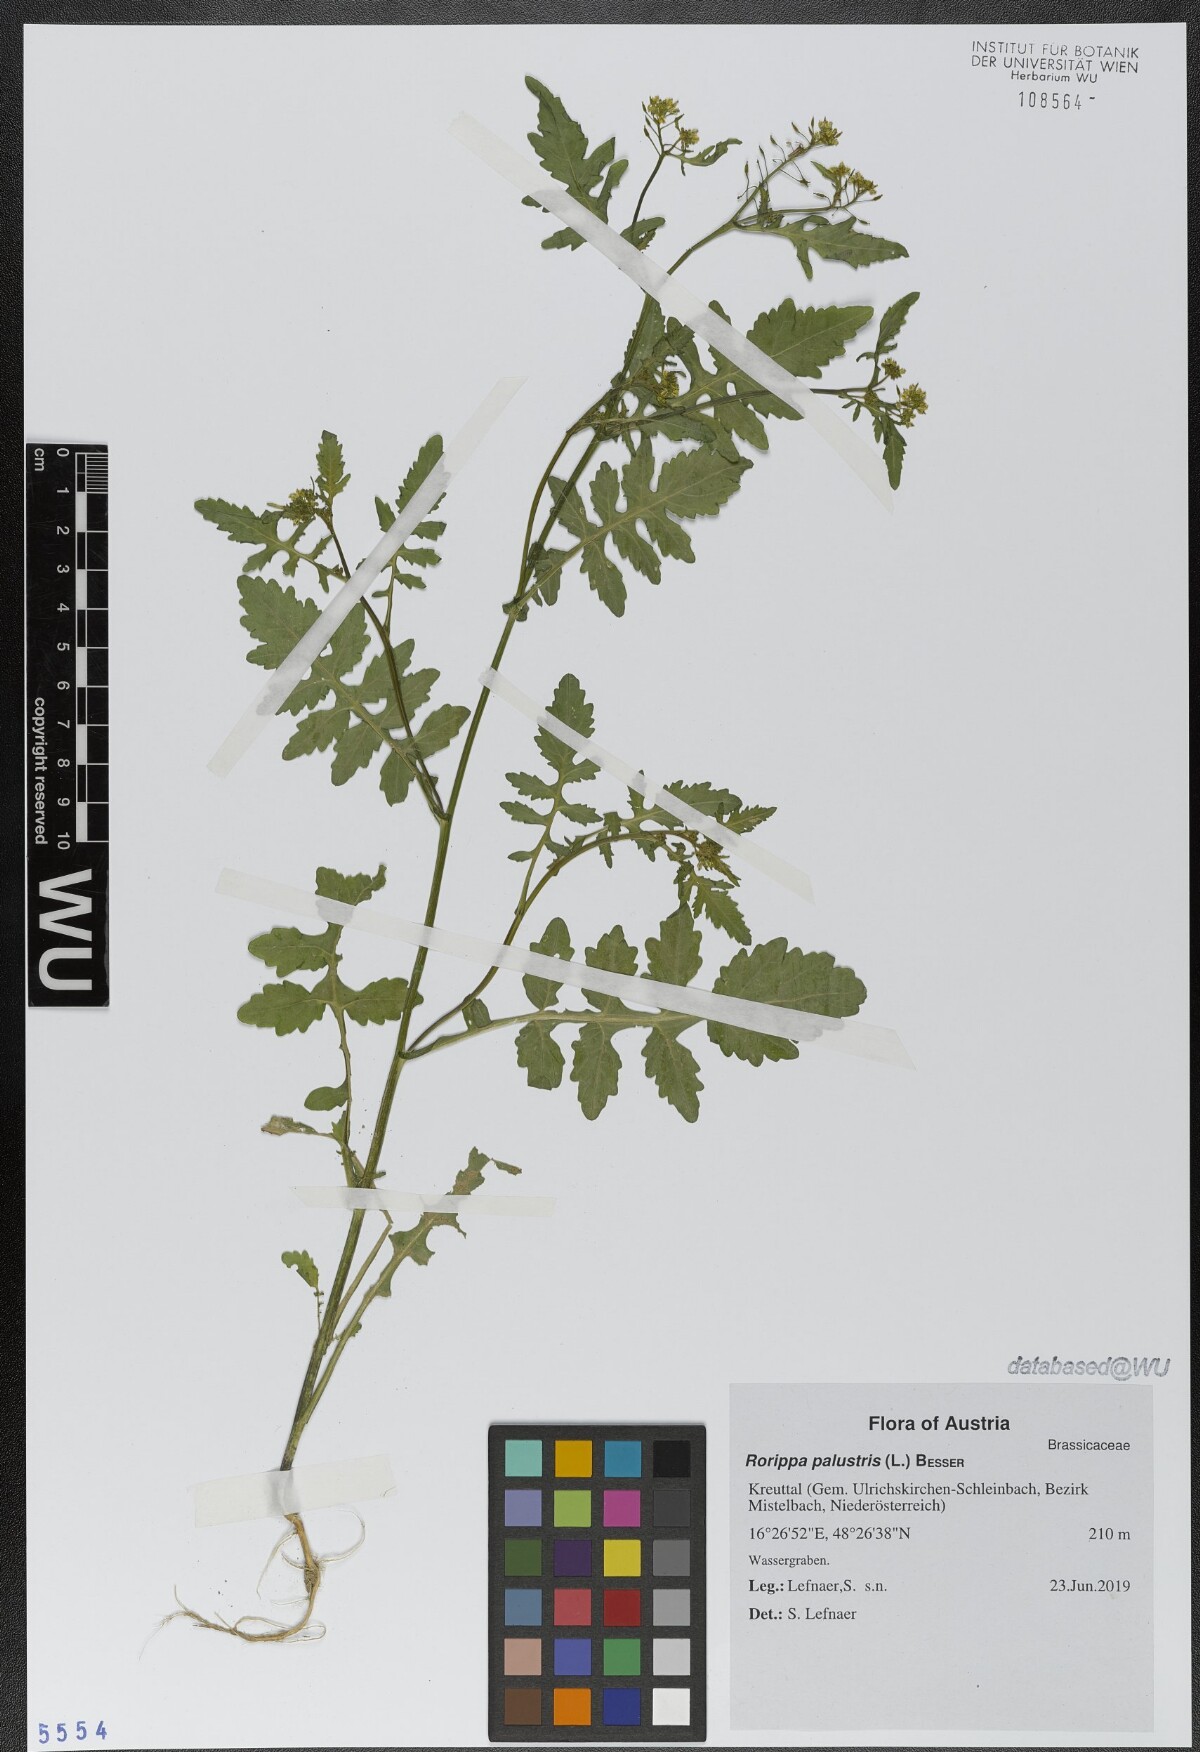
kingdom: Plantae
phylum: Tracheophyta
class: Magnoliopsida
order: Brassicales
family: Brassicaceae
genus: Rorippa
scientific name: Rorippa palustris
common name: Marsh yellow-cress
